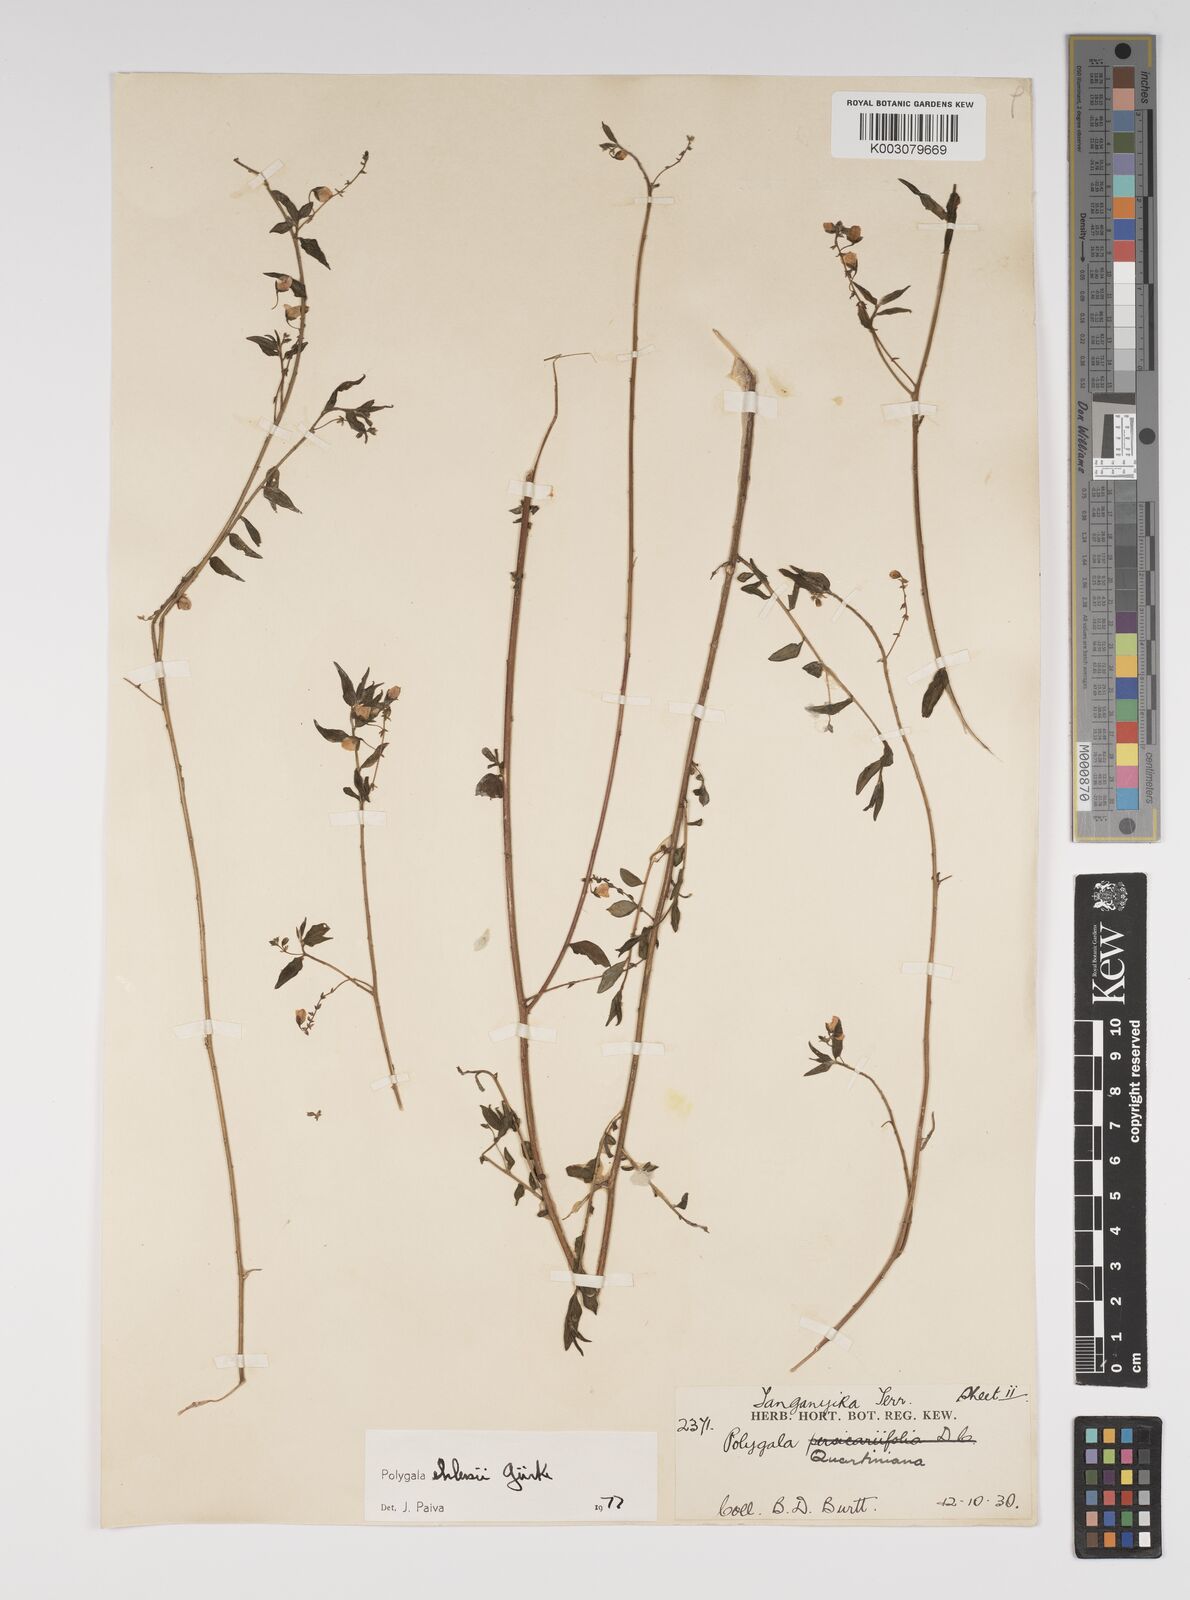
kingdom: Plantae
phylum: Tracheophyta
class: Magnoliopsida
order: Fabales
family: Polygalaceae
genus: Polygala
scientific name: Polygala ehlersii
